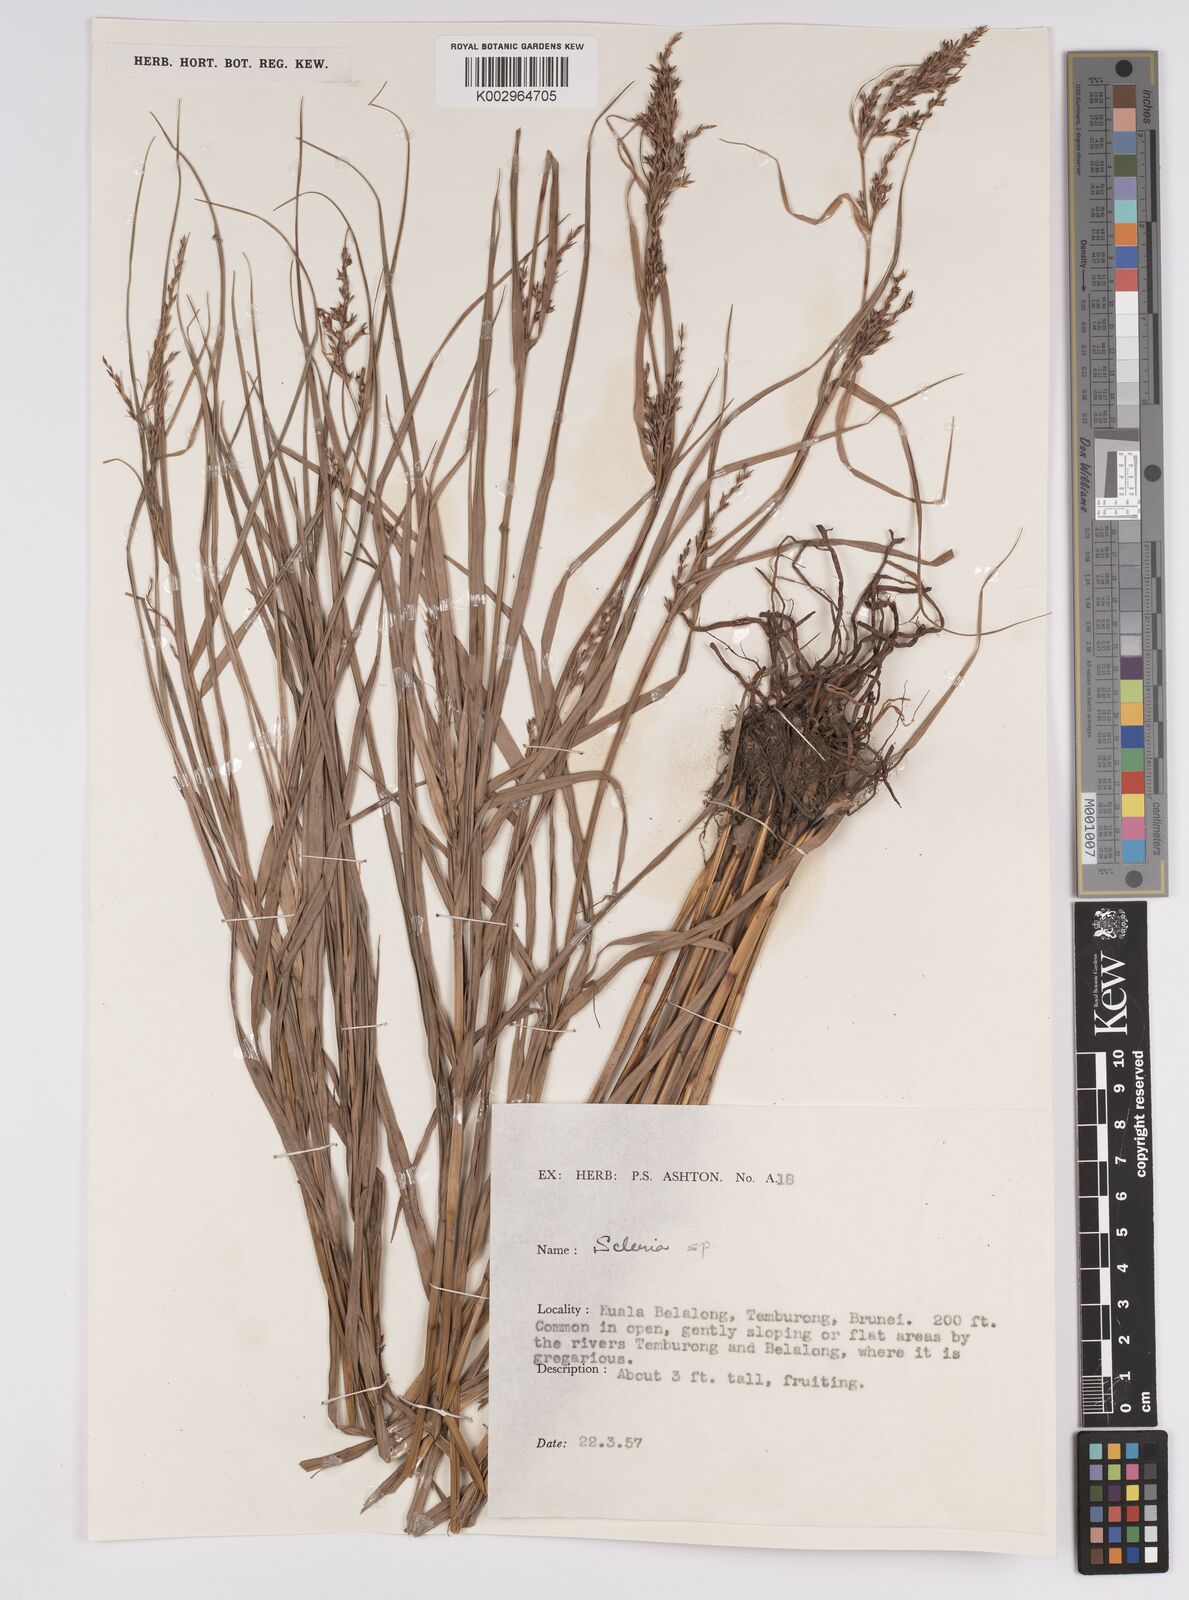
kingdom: Plantae
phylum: Tracheophyta
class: Liliopsida
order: Poales
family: Cyperaceae
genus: Scleria
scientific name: Scleria
